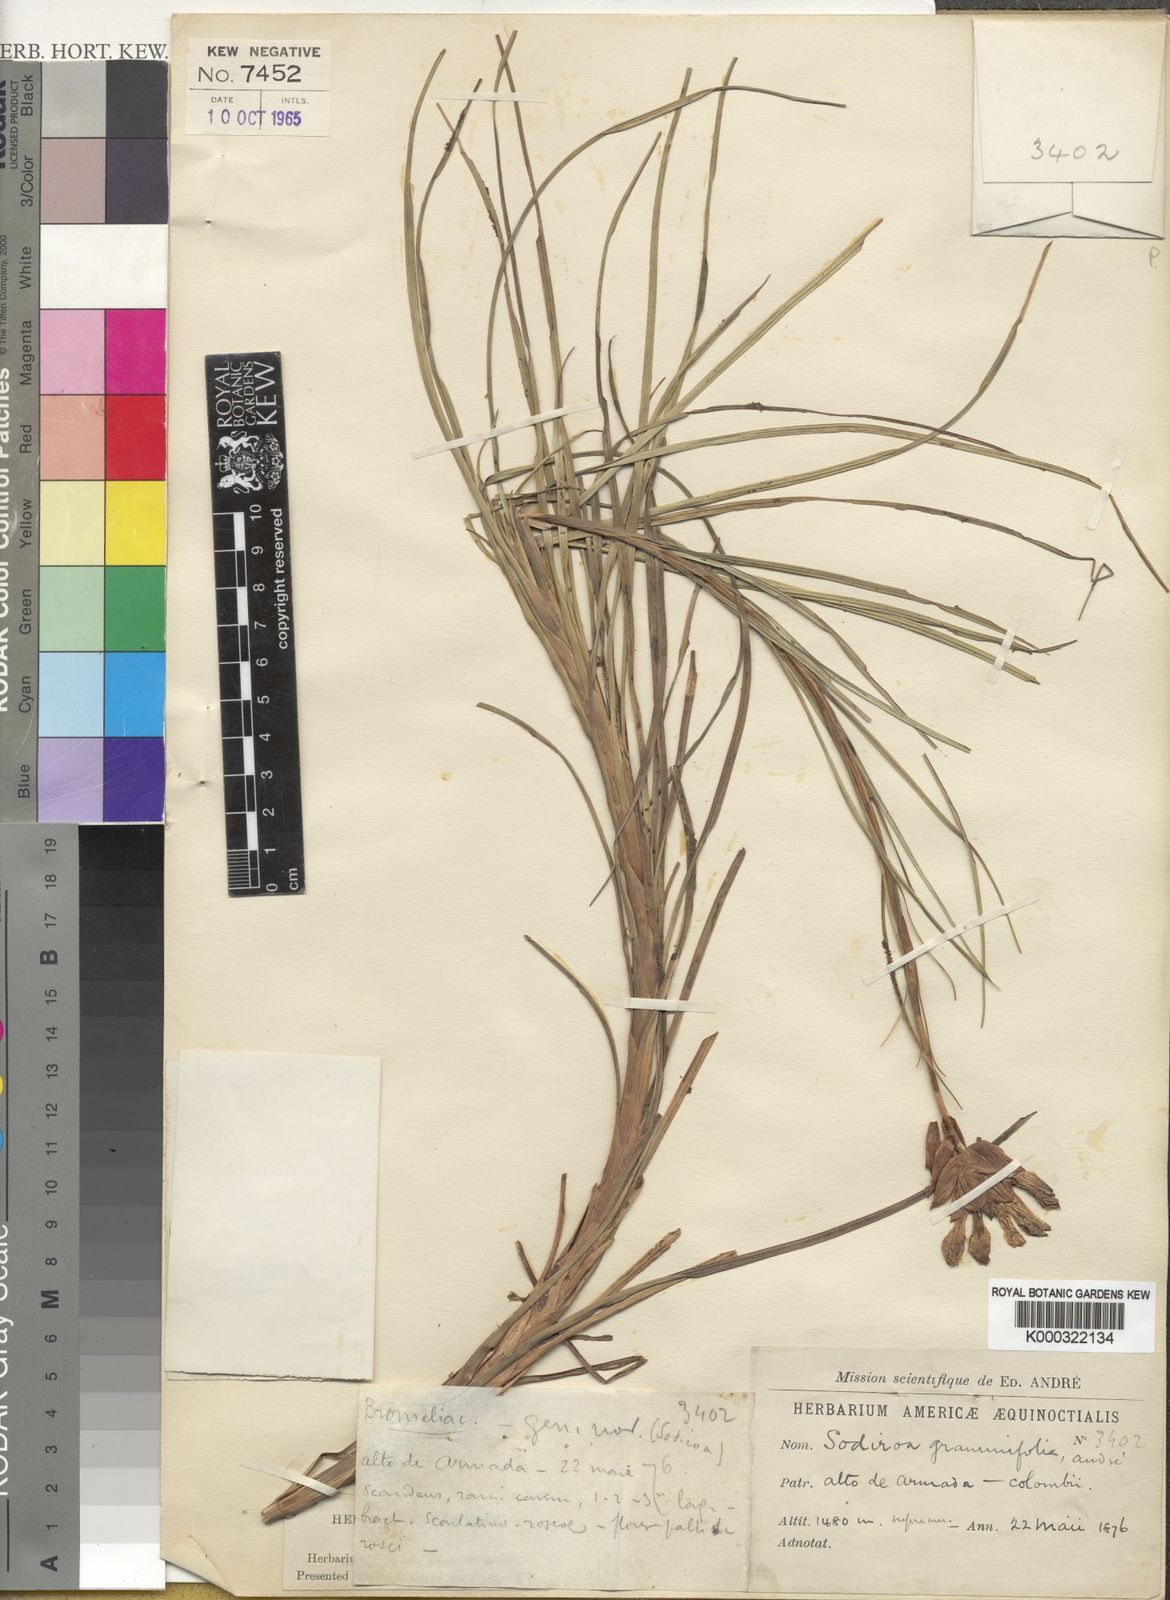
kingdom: Plantae
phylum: Tracheophyta
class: Liliopsida
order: Poales
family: Bromeliaceae
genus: Guzmania
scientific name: Guzmania graminifolia
